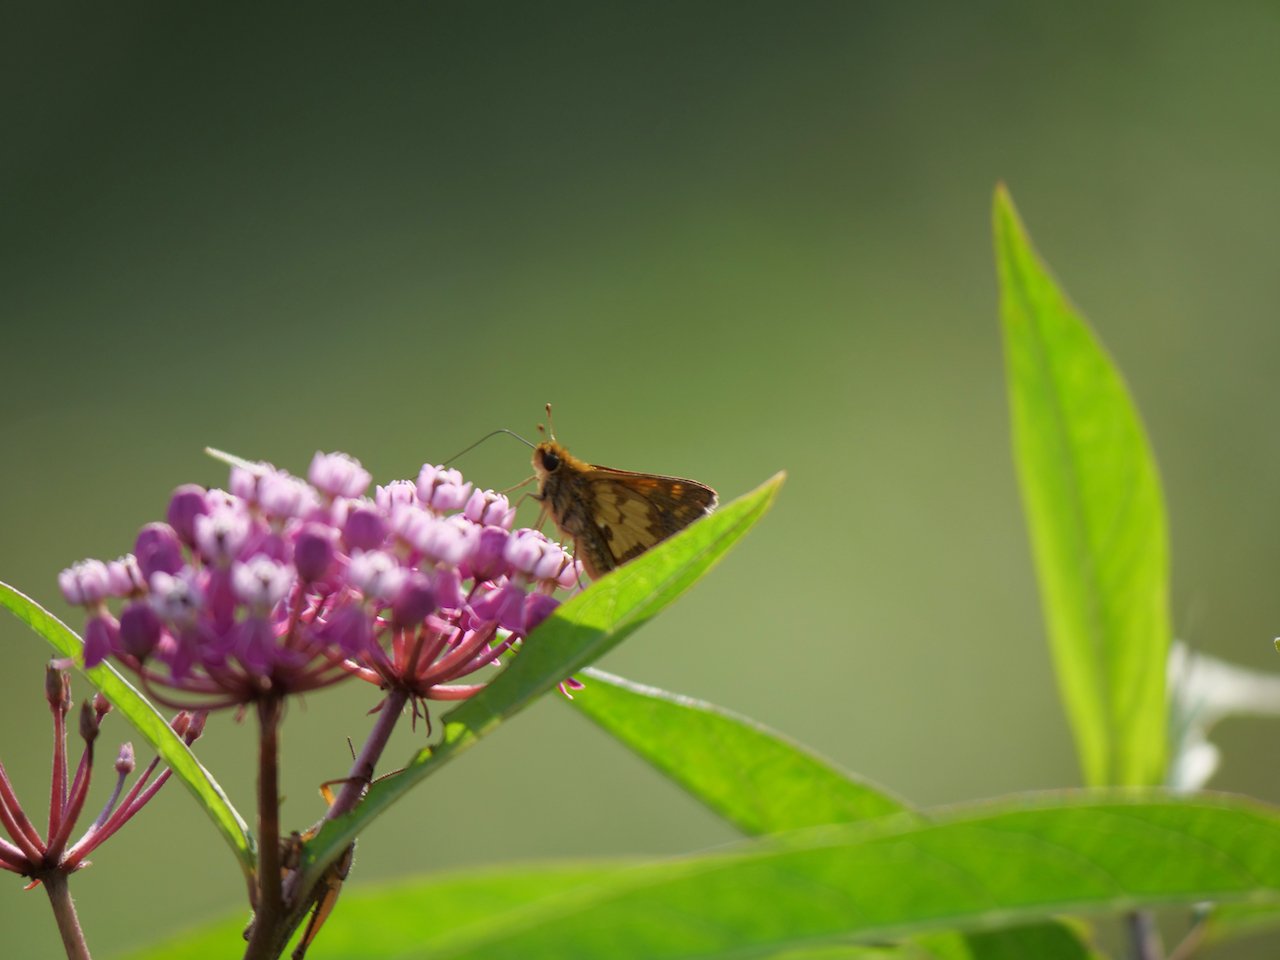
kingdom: Animalia
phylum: Arthropoda
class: Insecta
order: Lepidoptera
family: Hesperiidae
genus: Polites
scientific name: Polites coras
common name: Peck's Skipper
